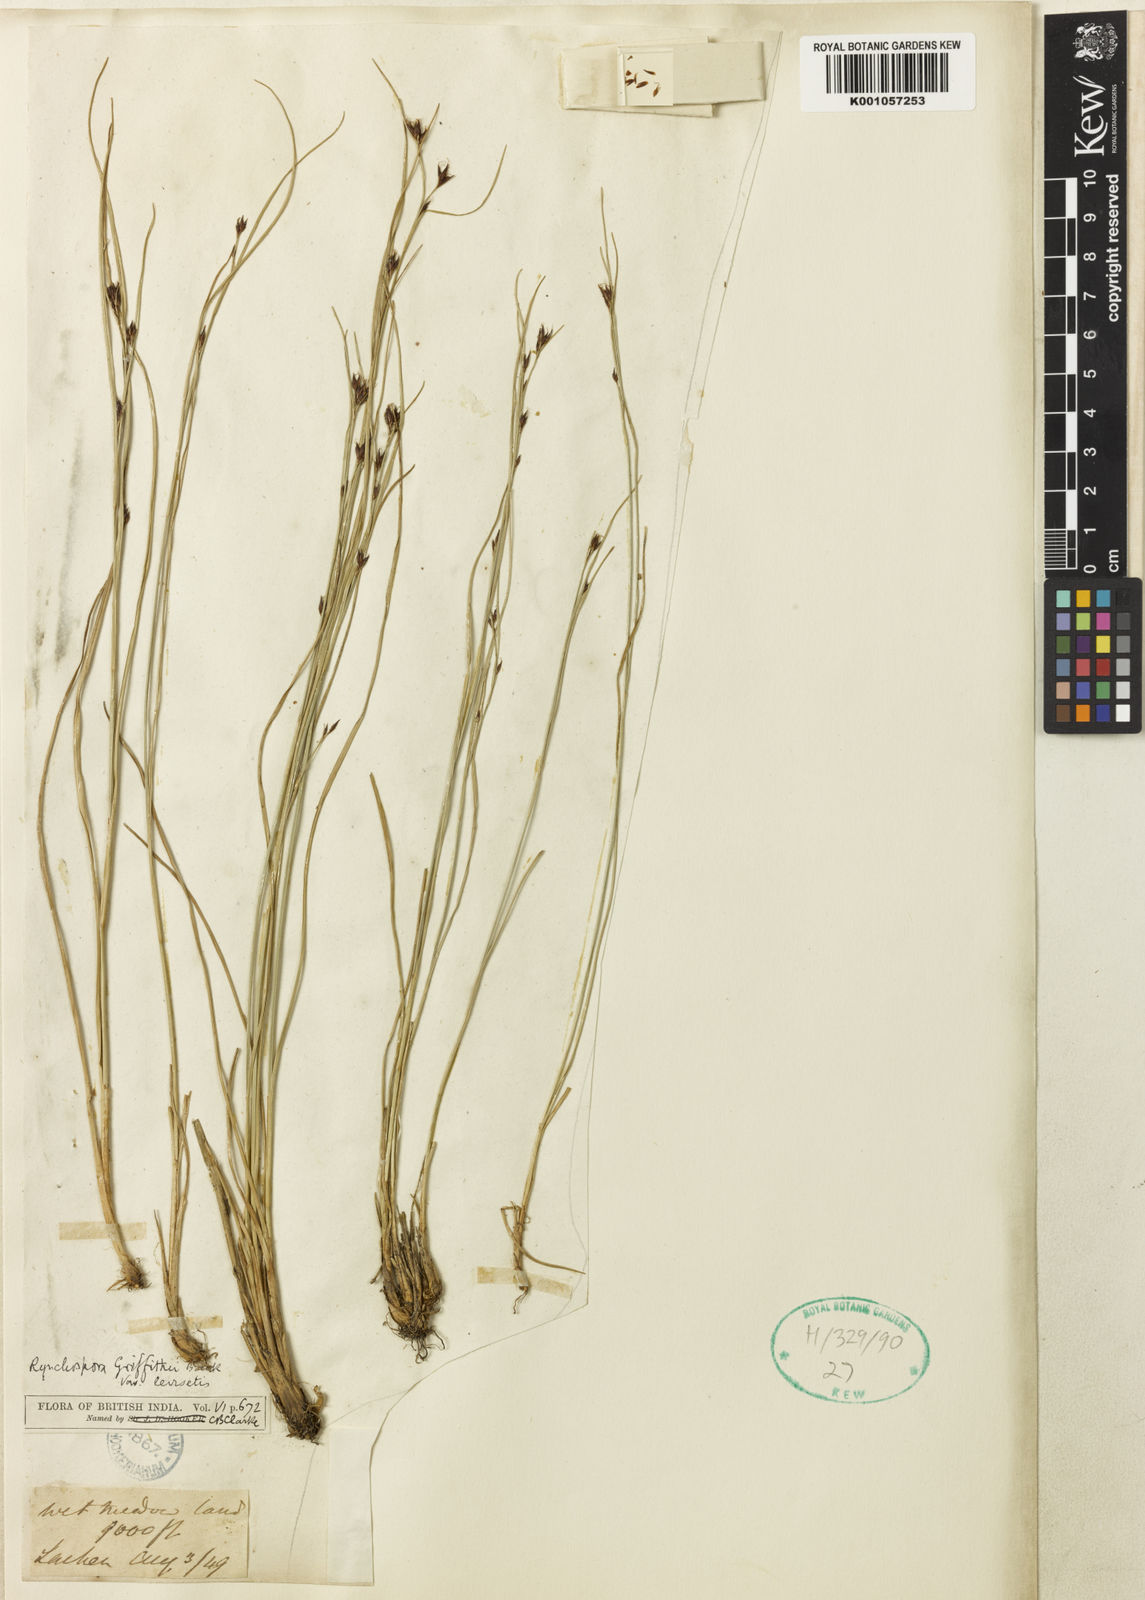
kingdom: Plantae
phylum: Tracheophyta
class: Liliopsida
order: Poales
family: Cyperaceae
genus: Rhynchospora
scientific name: Rhynchospora brownii
